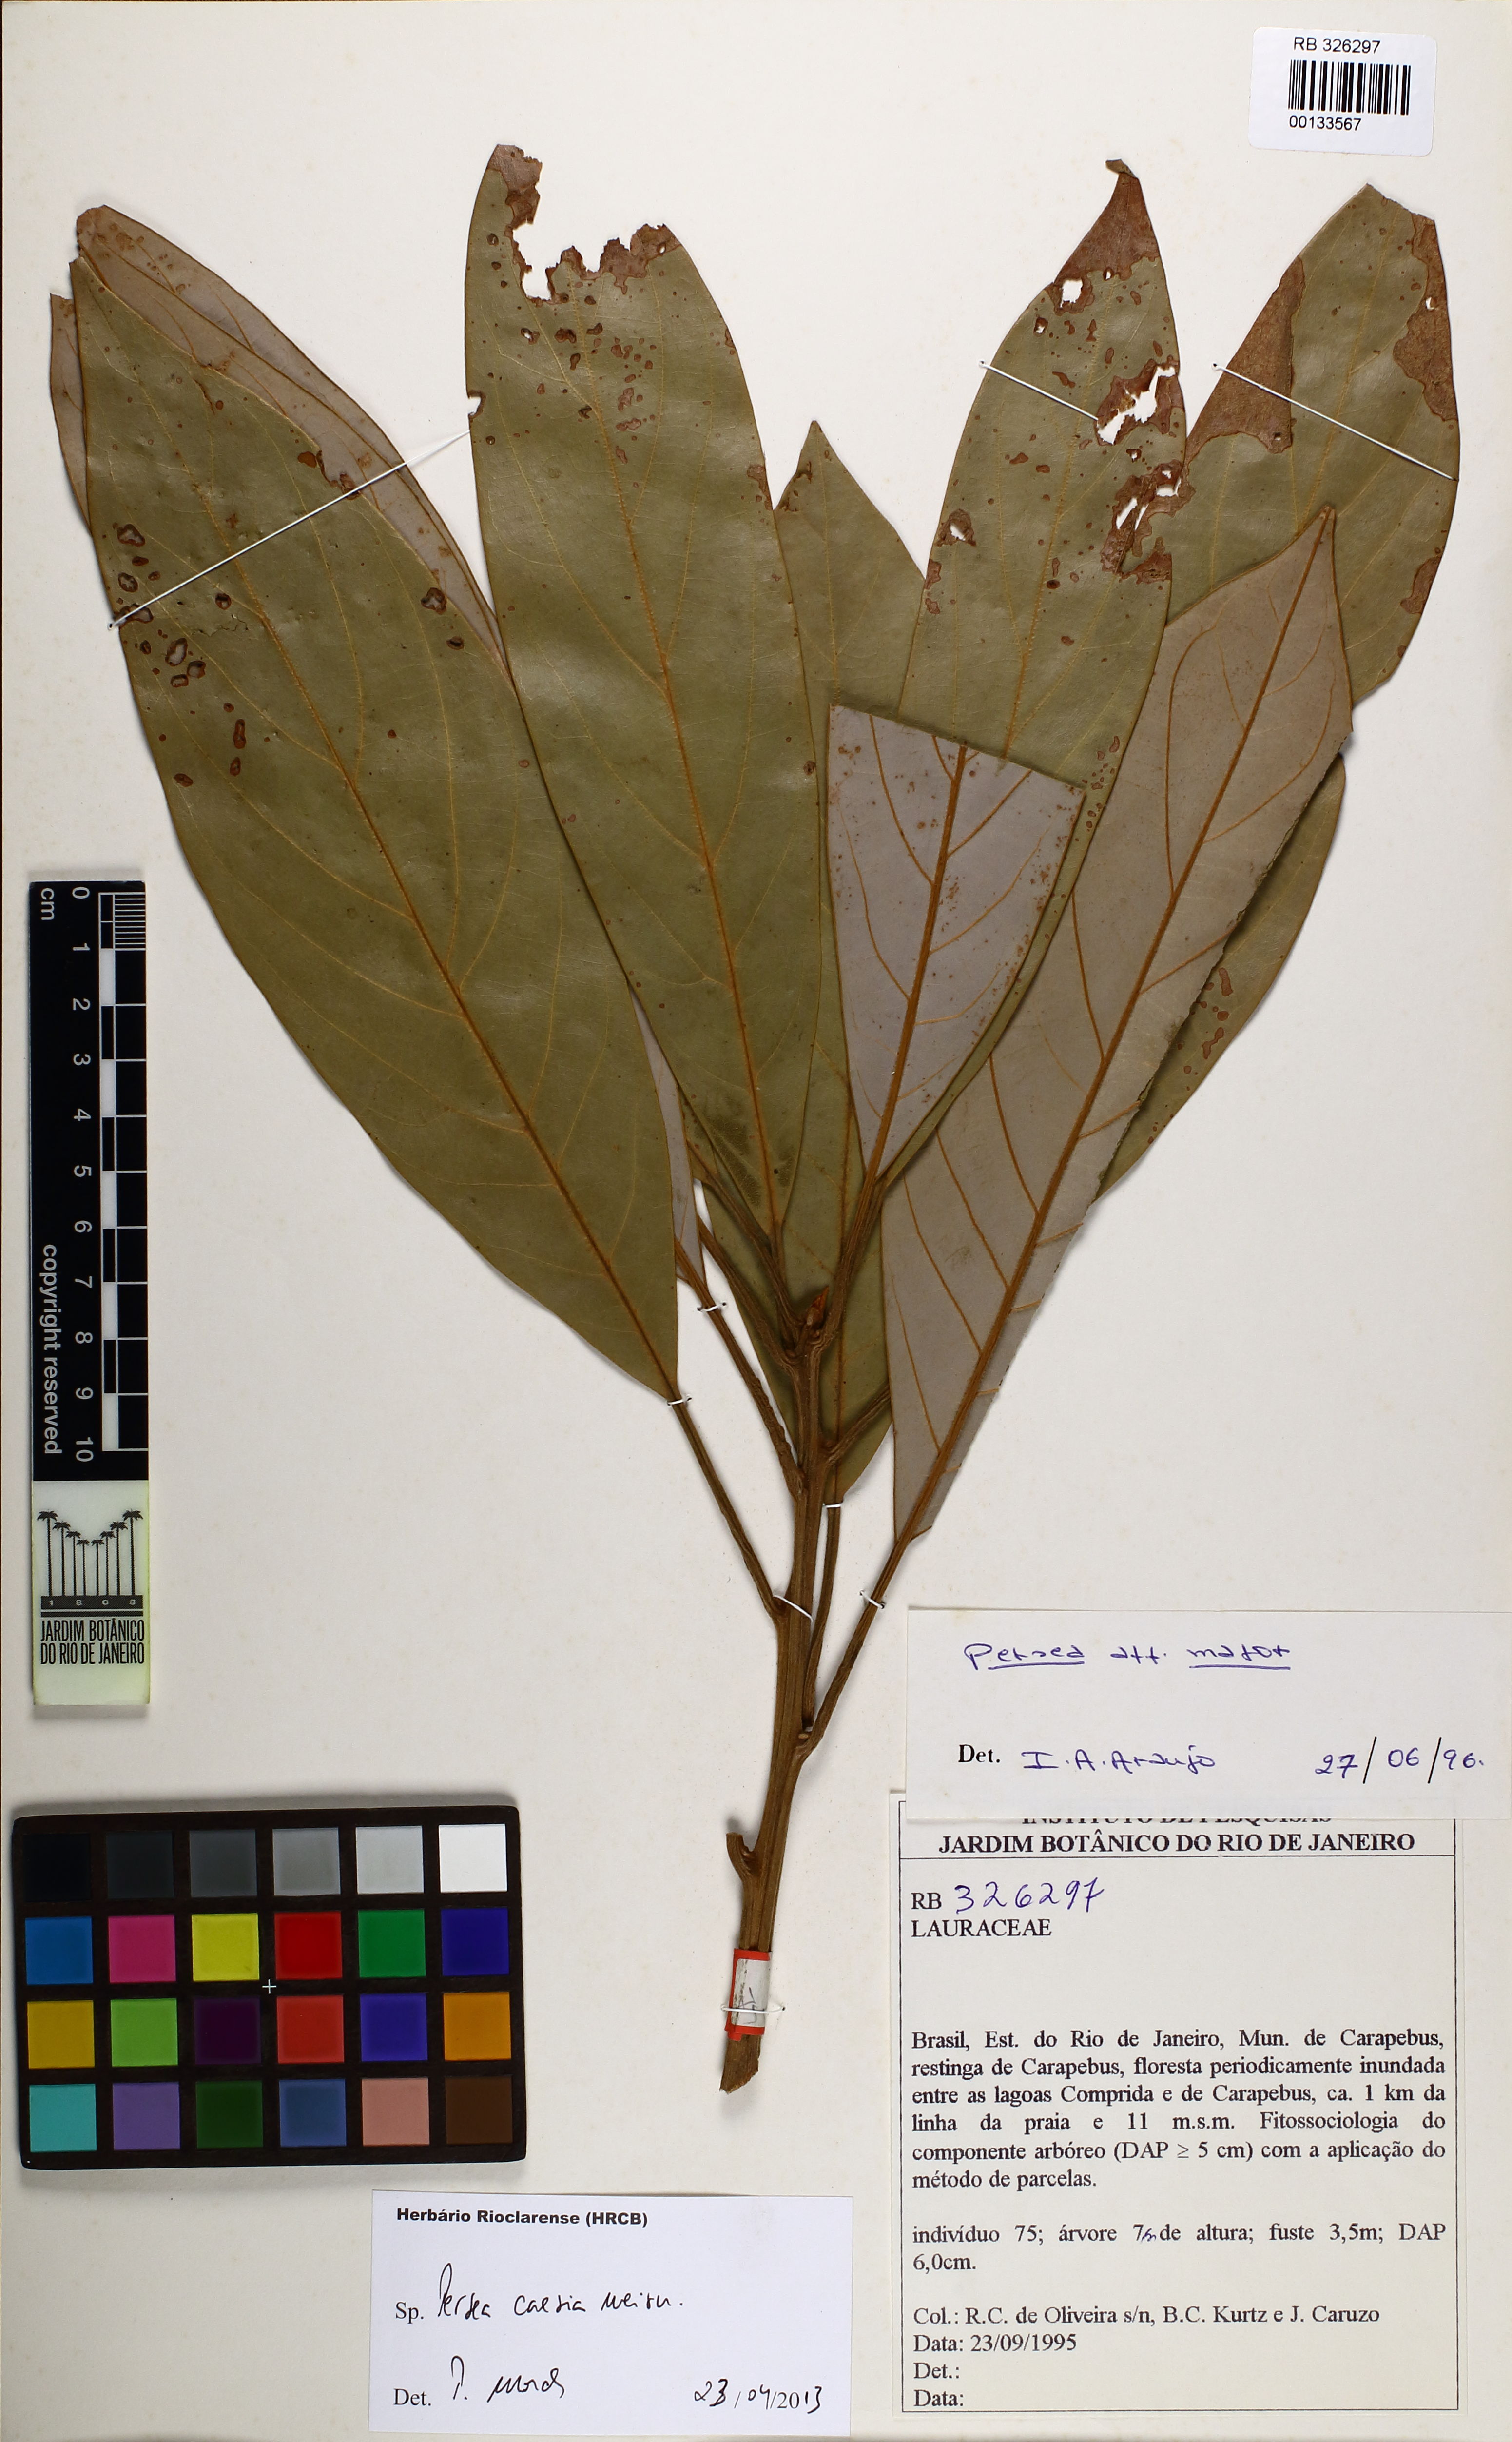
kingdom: Plantae
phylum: Tracheophyta
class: Magnoliopsida
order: Laurales
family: Lauraceae
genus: Persea
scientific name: Persea caesia
